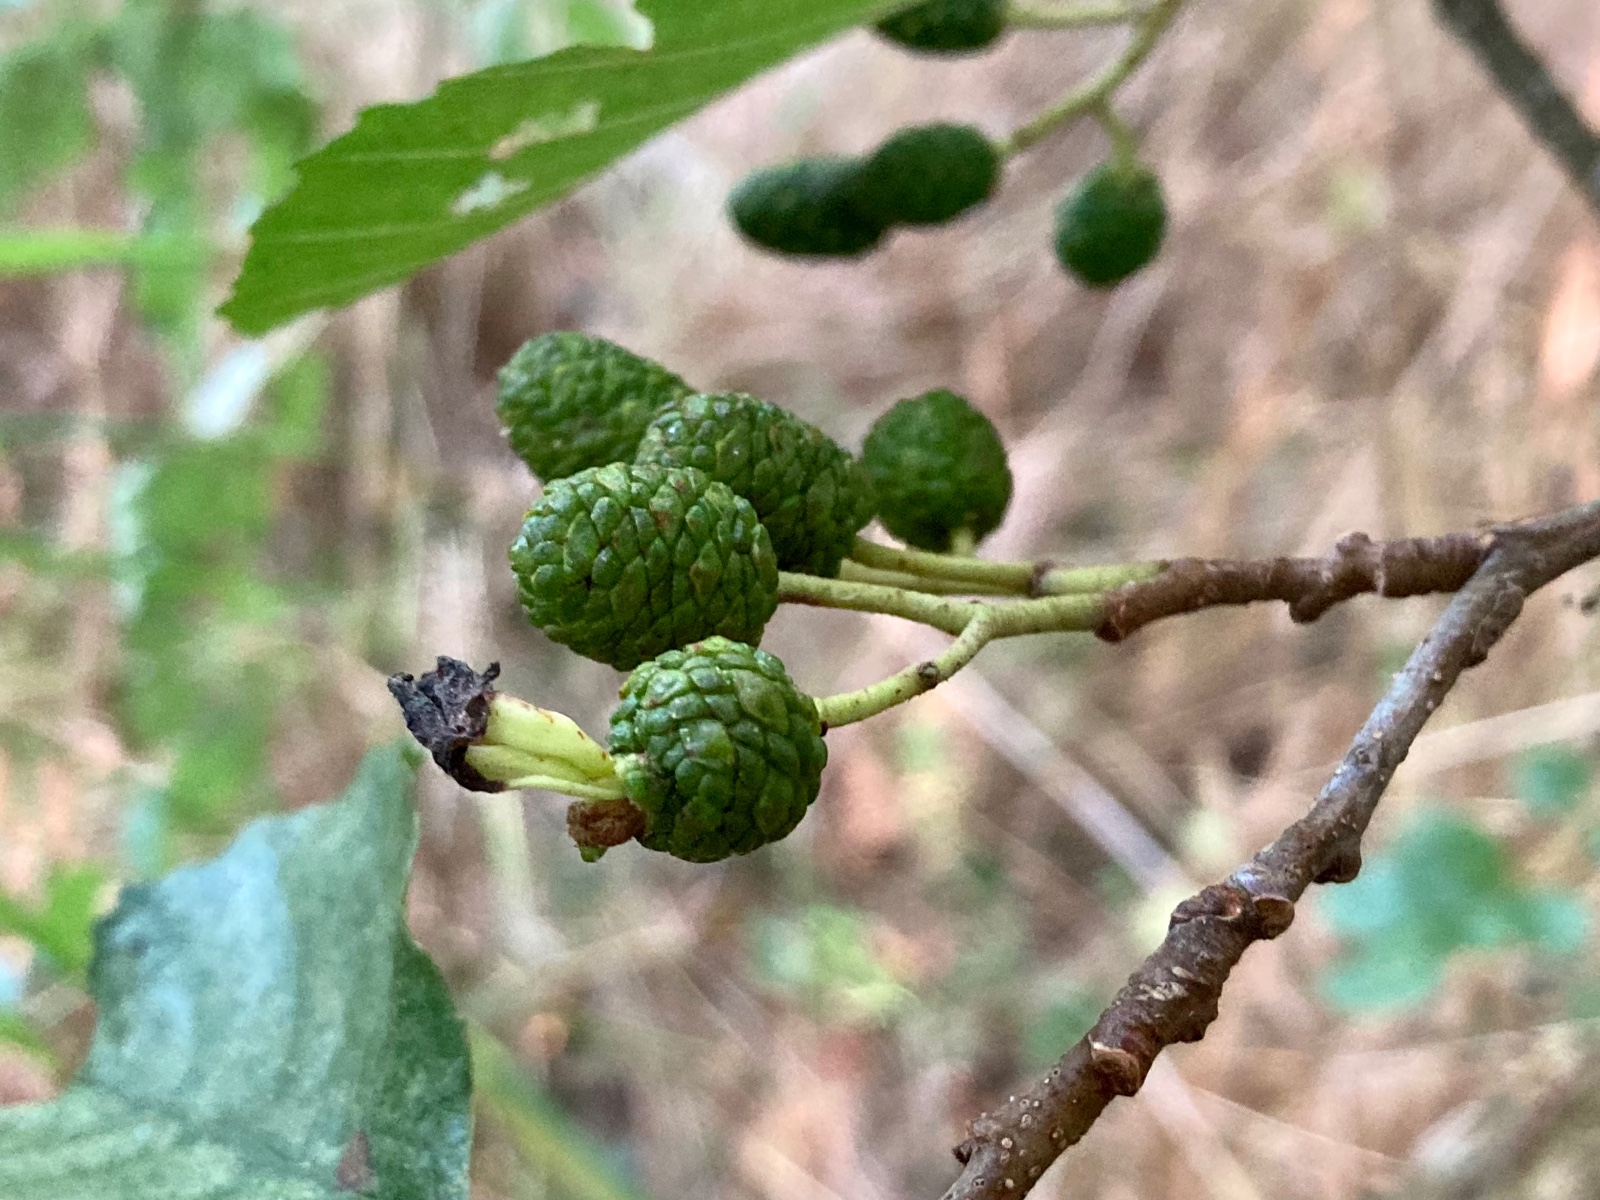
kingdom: Fungi
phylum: Ascomycota
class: Taphrinomycetes
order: Taphrinales
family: Taphrinaceae
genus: Taphrina
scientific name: Taphrina alni
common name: Alder tongue
